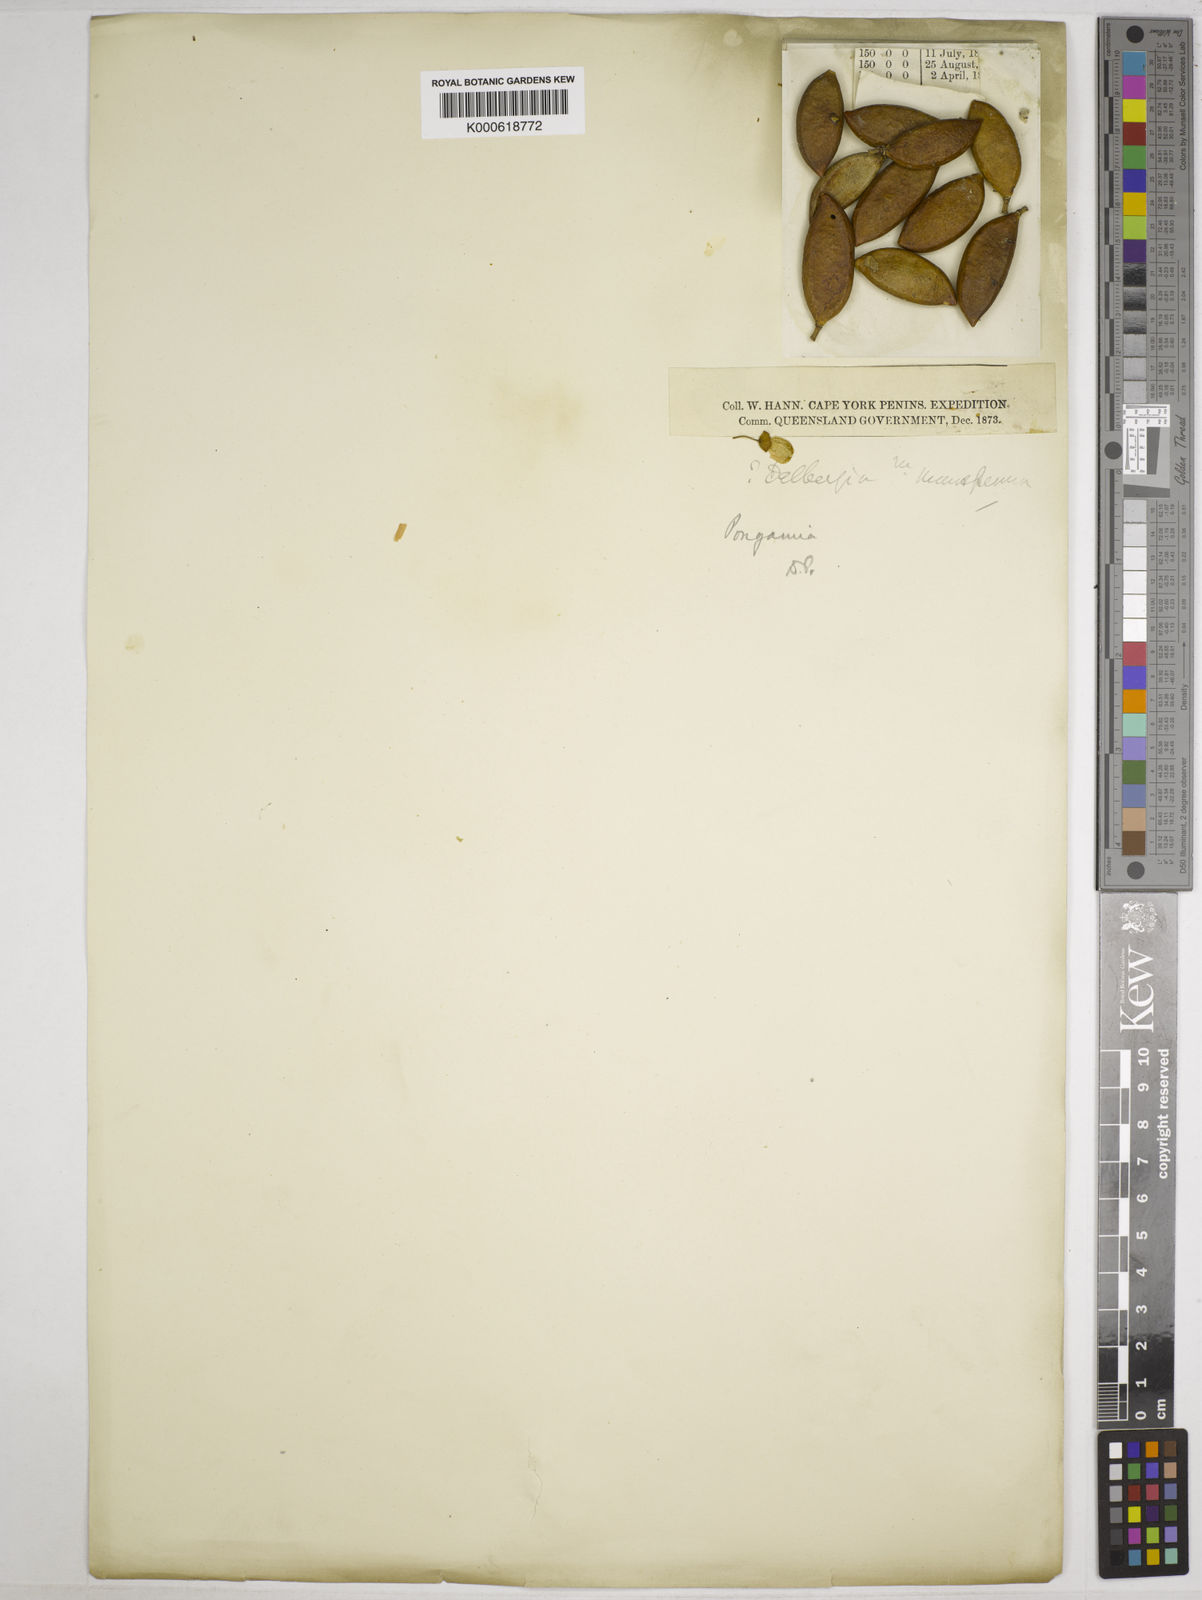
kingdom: Plantae
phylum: Tracheophyta
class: Magnoliopsida
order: Fabales
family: Fabaceae
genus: Dialium
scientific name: Dialium procerum
